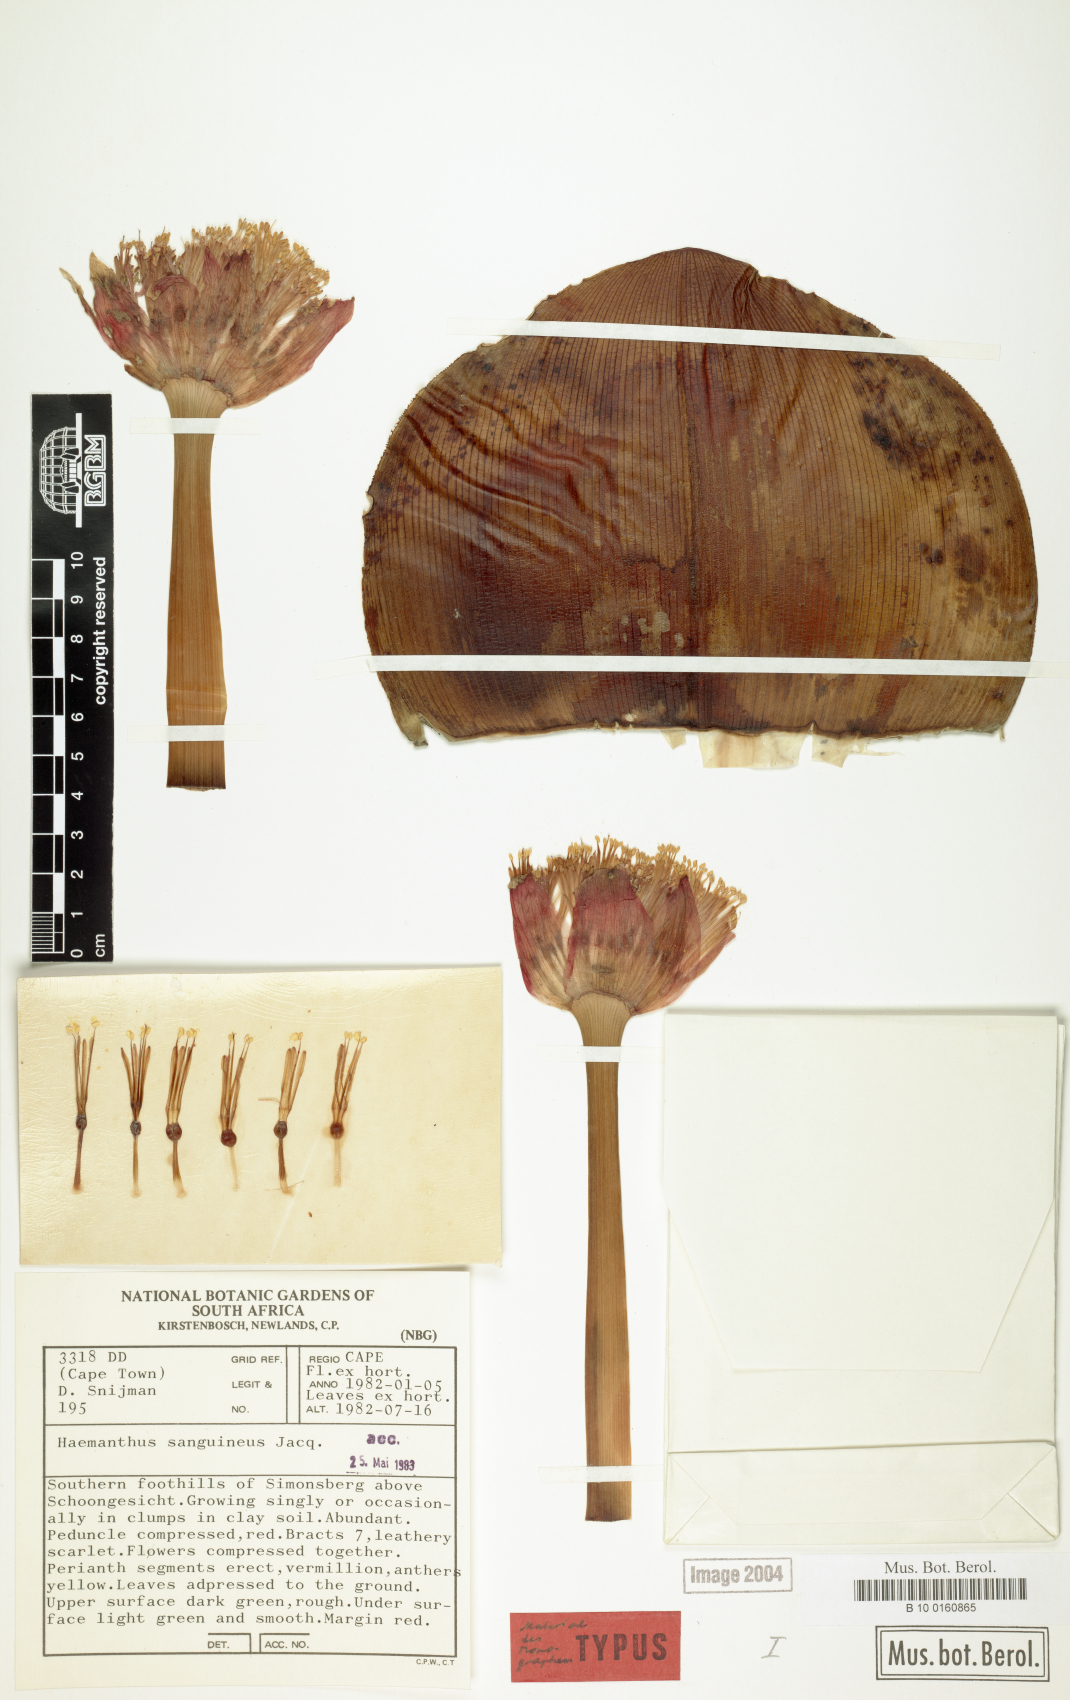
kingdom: Plantae
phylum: Tracheophyta
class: Liliopsida
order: Asparagales
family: Amaryllidaceae
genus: Haemanthus
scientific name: Haemanthus sanguineus
